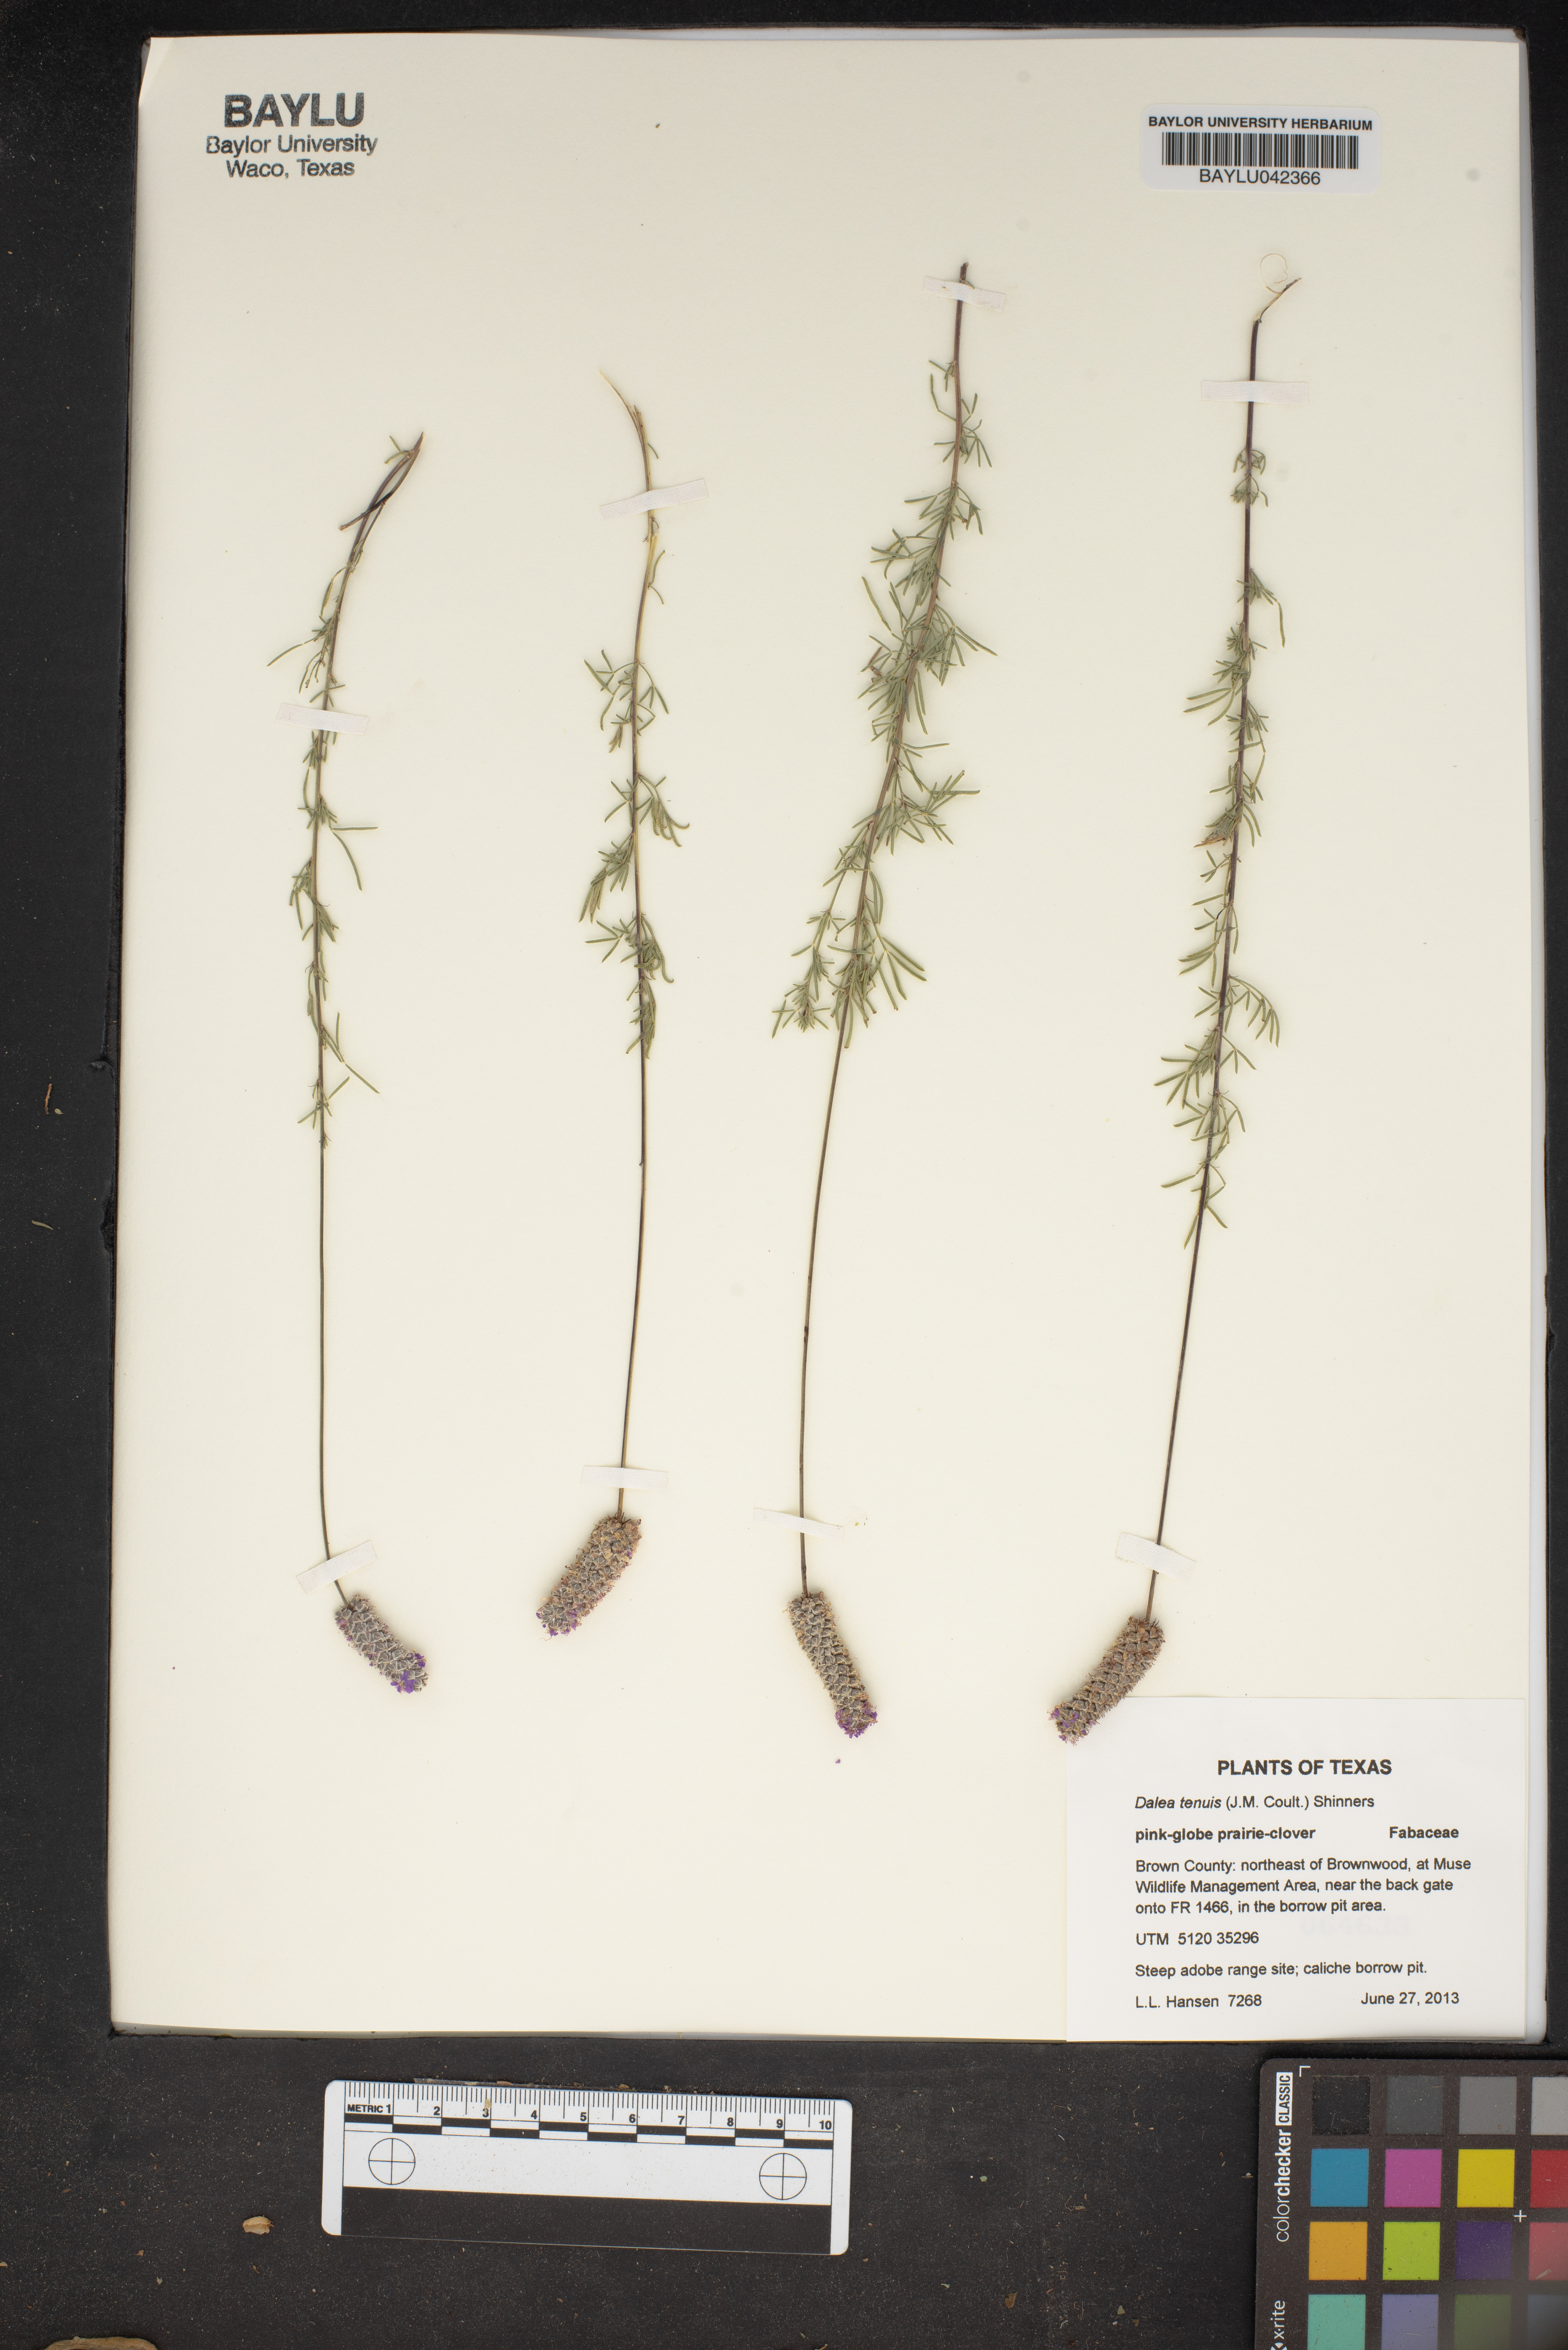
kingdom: Plantae
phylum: Tracheophyta
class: Magnoliopsida
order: Fabales
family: Fabaceae
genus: Dalea
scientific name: Dalea tenuis
